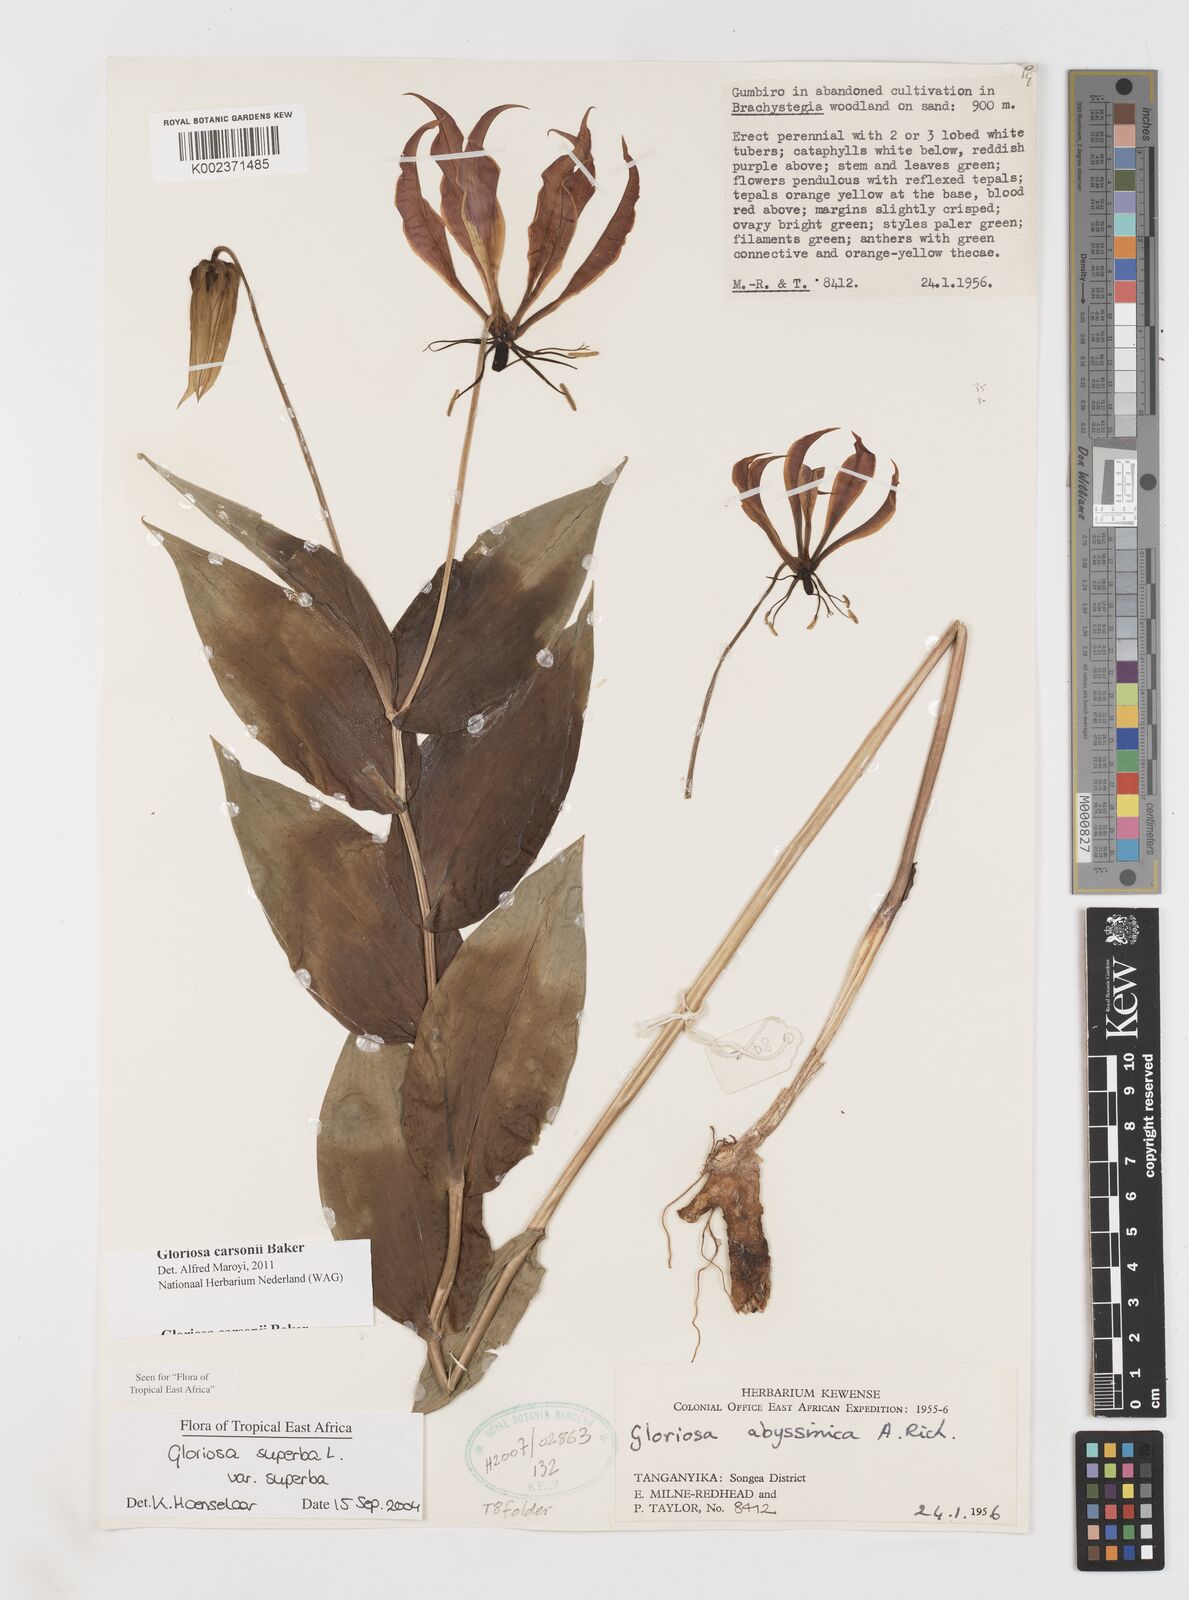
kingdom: Plantae
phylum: Tracheophyta
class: Liliopsida
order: Liliales
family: Colchicaceae
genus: Gloriosa
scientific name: Gloriosa carsonii
